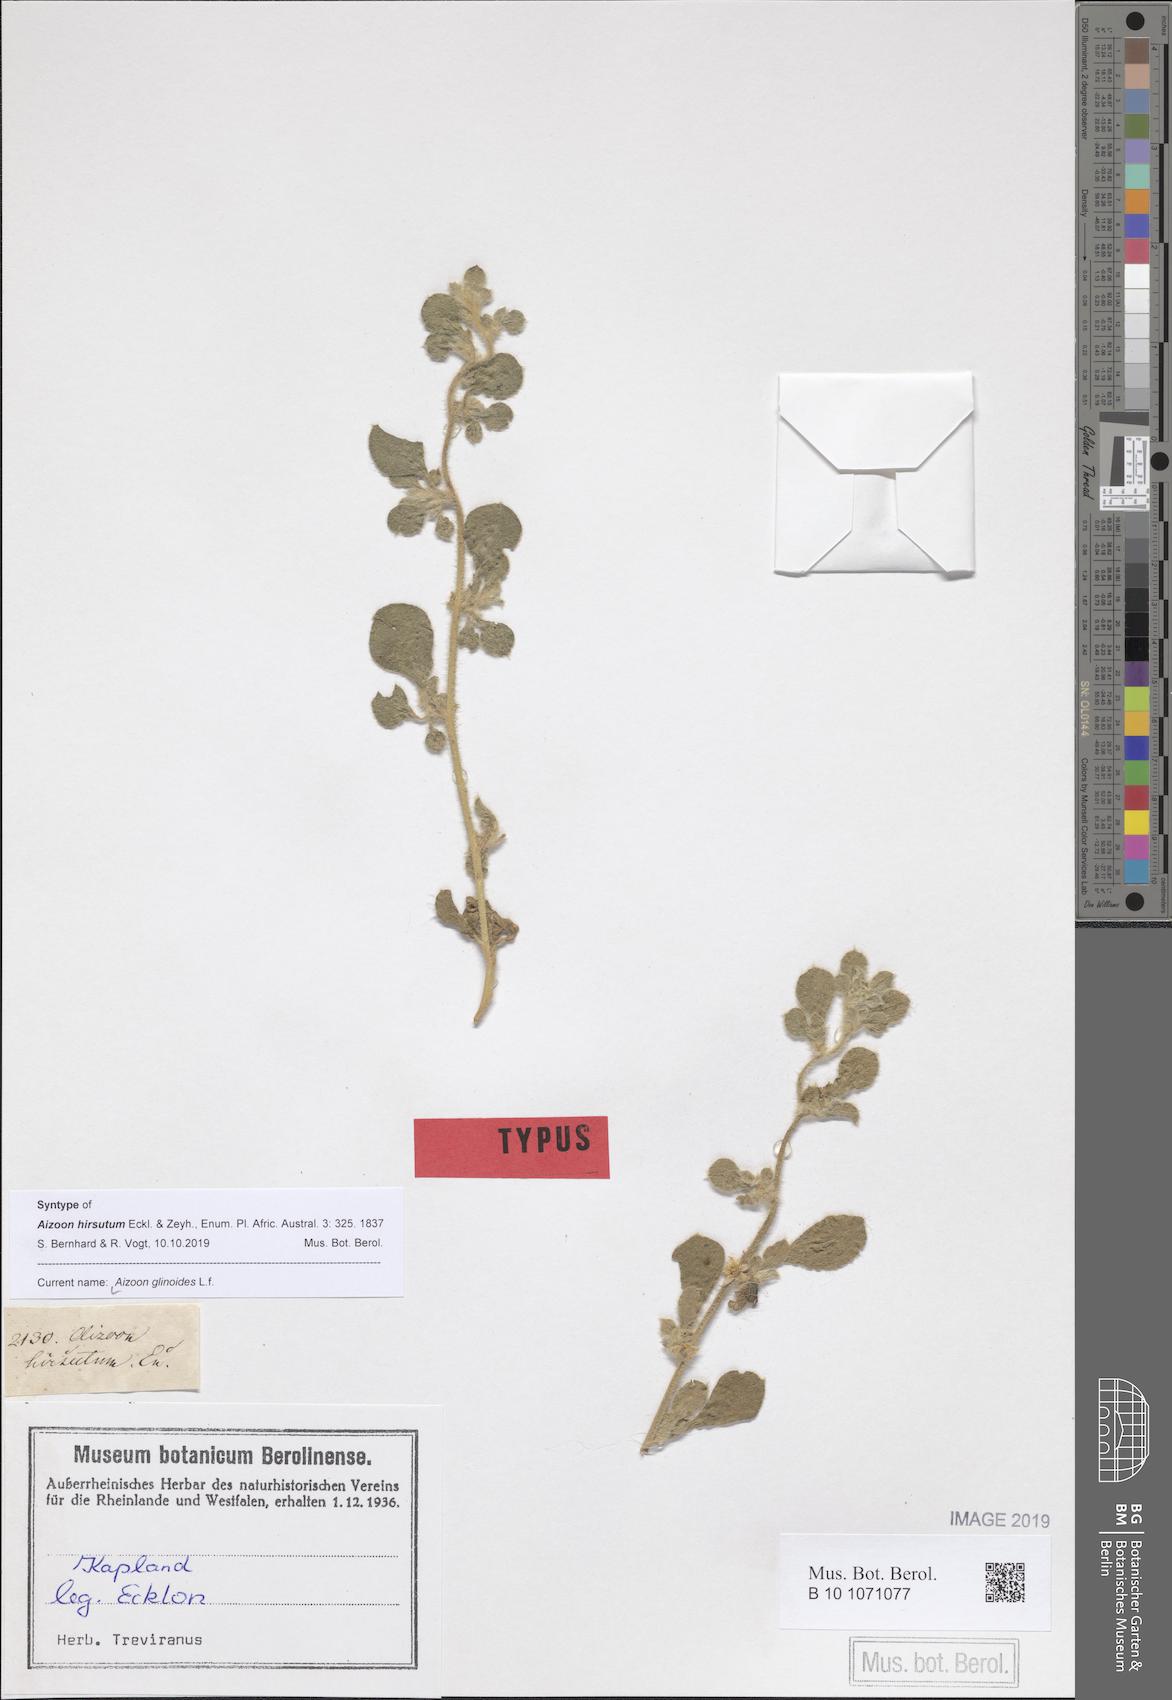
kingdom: Plantae
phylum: Tracheophyta
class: Magnoliopsida
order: Caryophyllales
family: Aizoaceae
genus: Aizoon
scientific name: Aizoon glinoides
